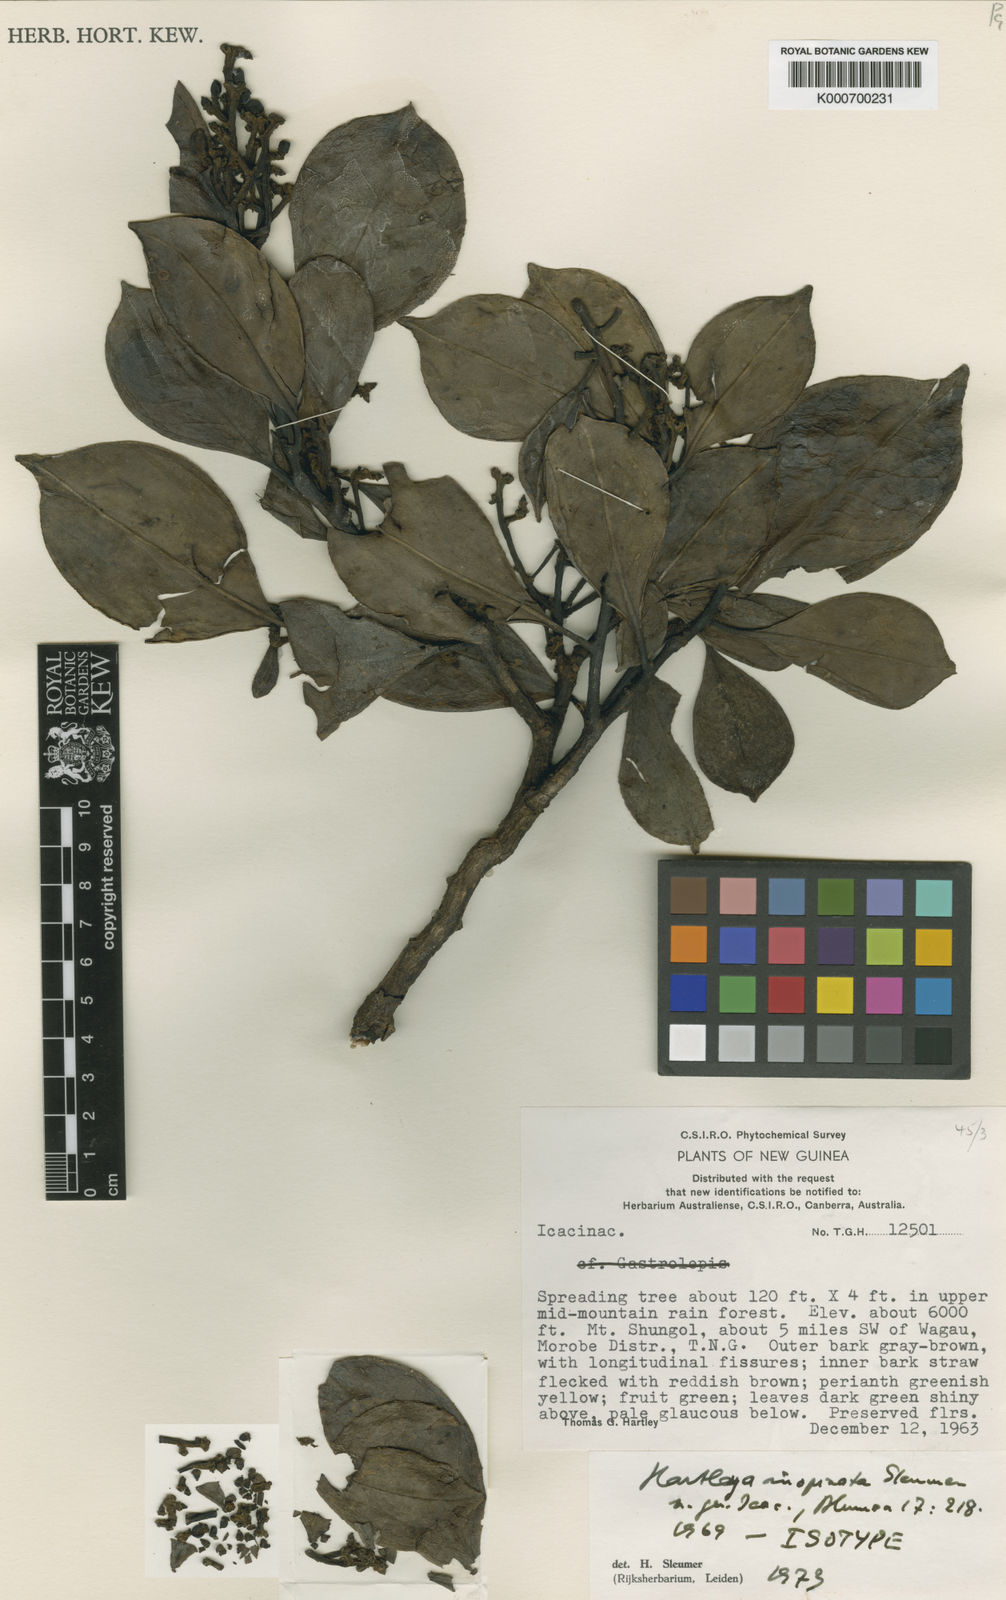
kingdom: Plantae
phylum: Tracheophyta
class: Magnoliopsida
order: Cardiopteridales
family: Stemonuraceae
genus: Hartleya
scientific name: Hartleya inopinata
